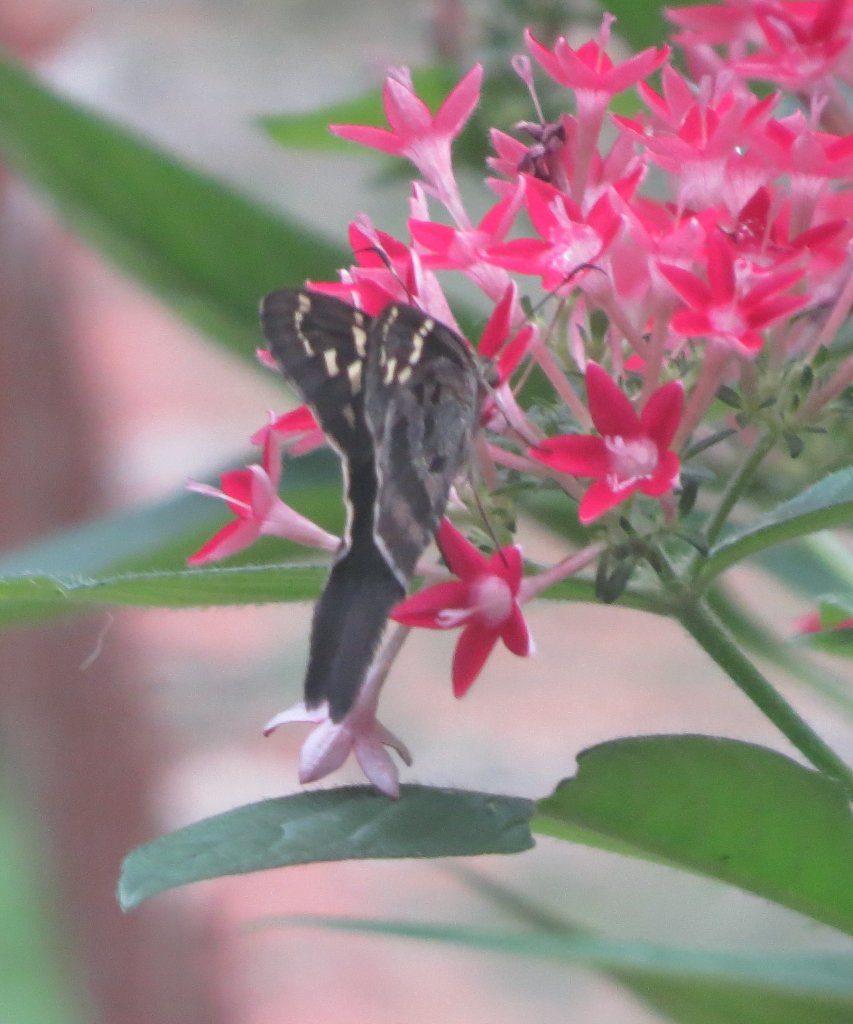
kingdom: Animalia
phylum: Arthropoda
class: Insecta
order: Lepidoptera
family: Hesperiidae
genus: Urbanus
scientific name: Urbanus proteus
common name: Long-tailed Skipper
